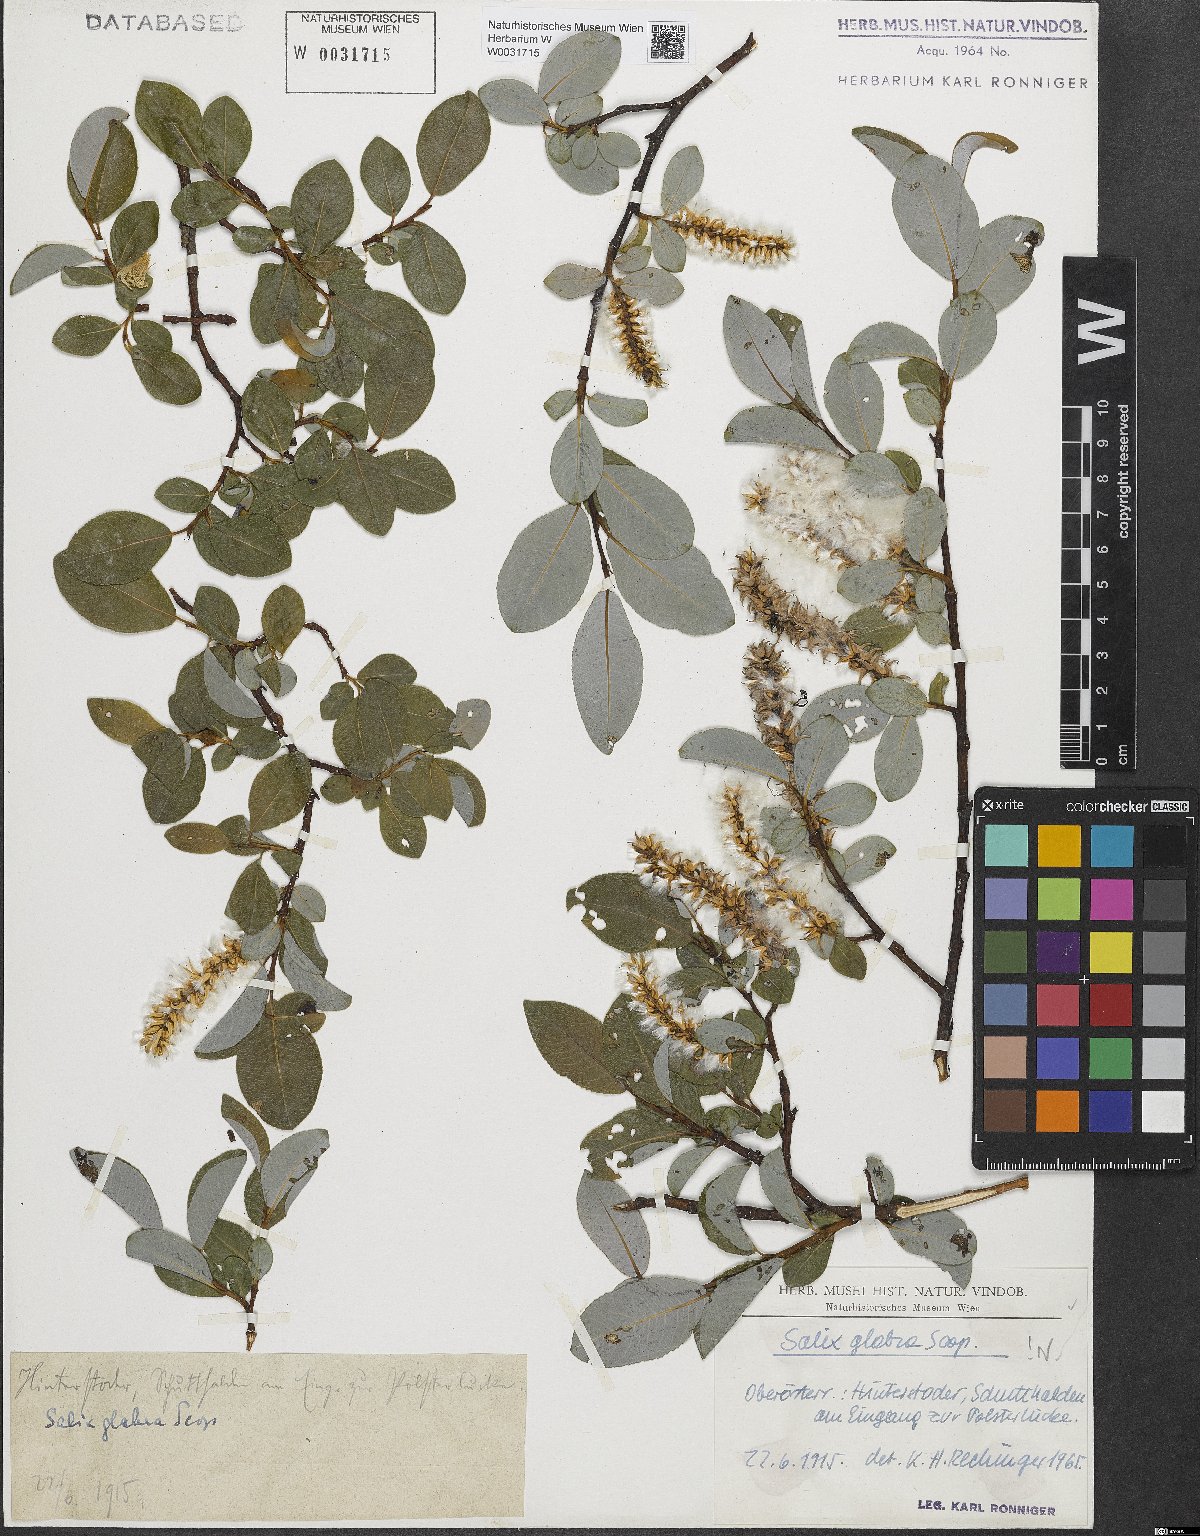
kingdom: Plantae
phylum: Tracheophyta
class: Magnoliopsida
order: Malpighiales
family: Salicaceae
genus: Salix
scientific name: Salix glabra
